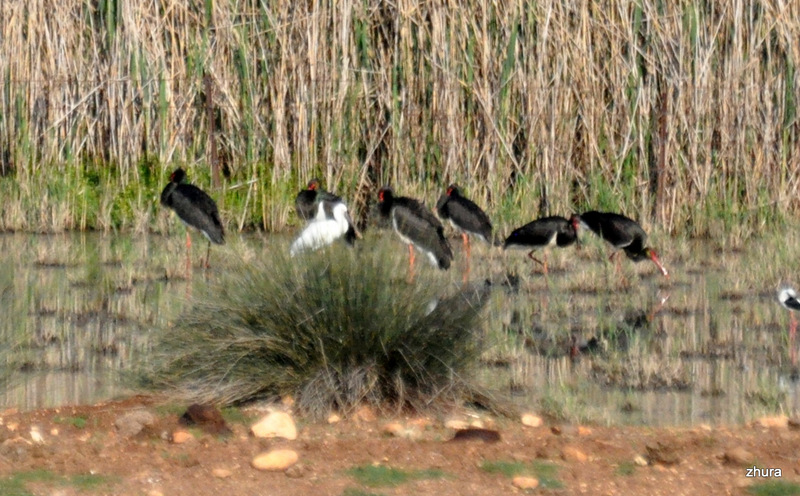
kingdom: Animalia
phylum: Chordata
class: Aves
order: Pelecaniformes
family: Threskiornithidae
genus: Platalea
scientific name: Platalea leucorodia
